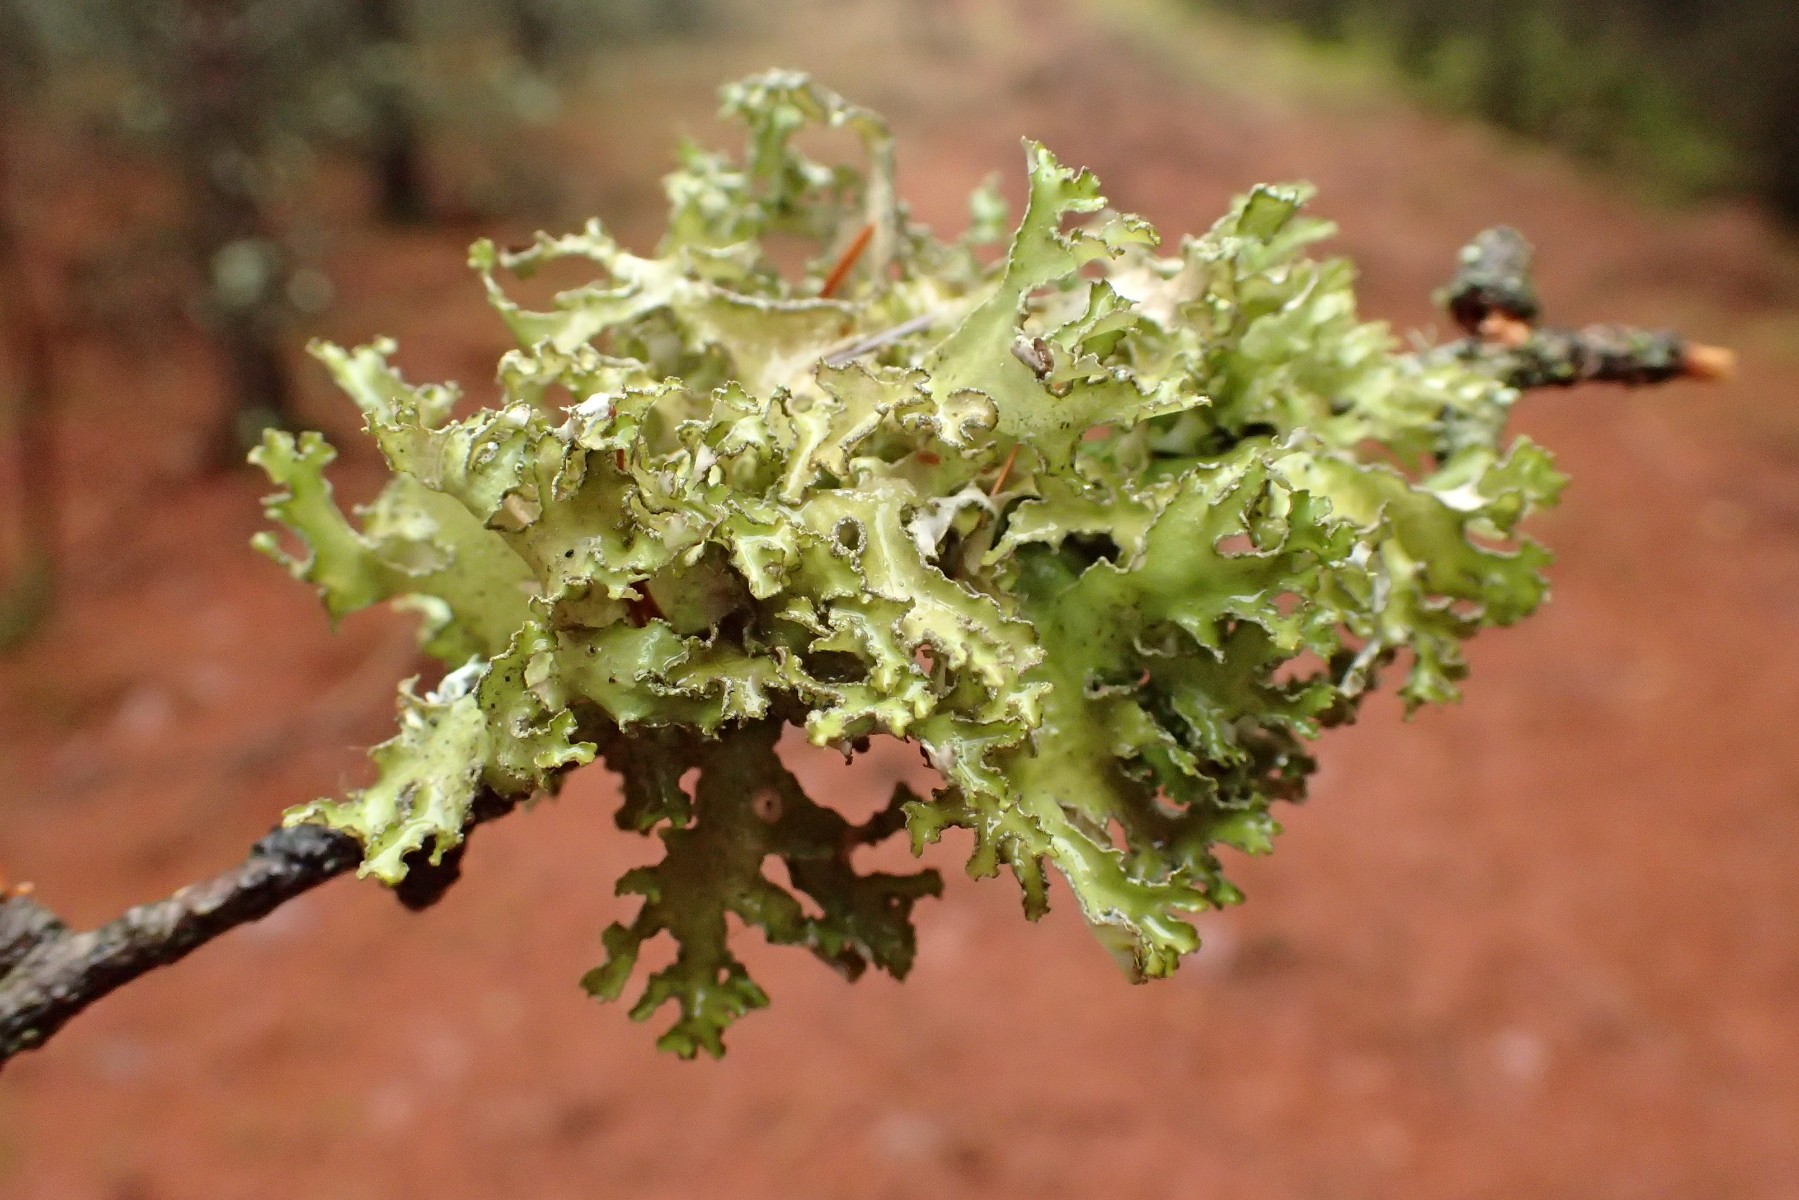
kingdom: Fungi
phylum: Ascomycota
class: Lecanoromycetes
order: Lecanorales
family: Parmeliaceae
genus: Nephromopsis
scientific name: Nephromopsis chlorophylla
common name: olivenbrun kruslav
